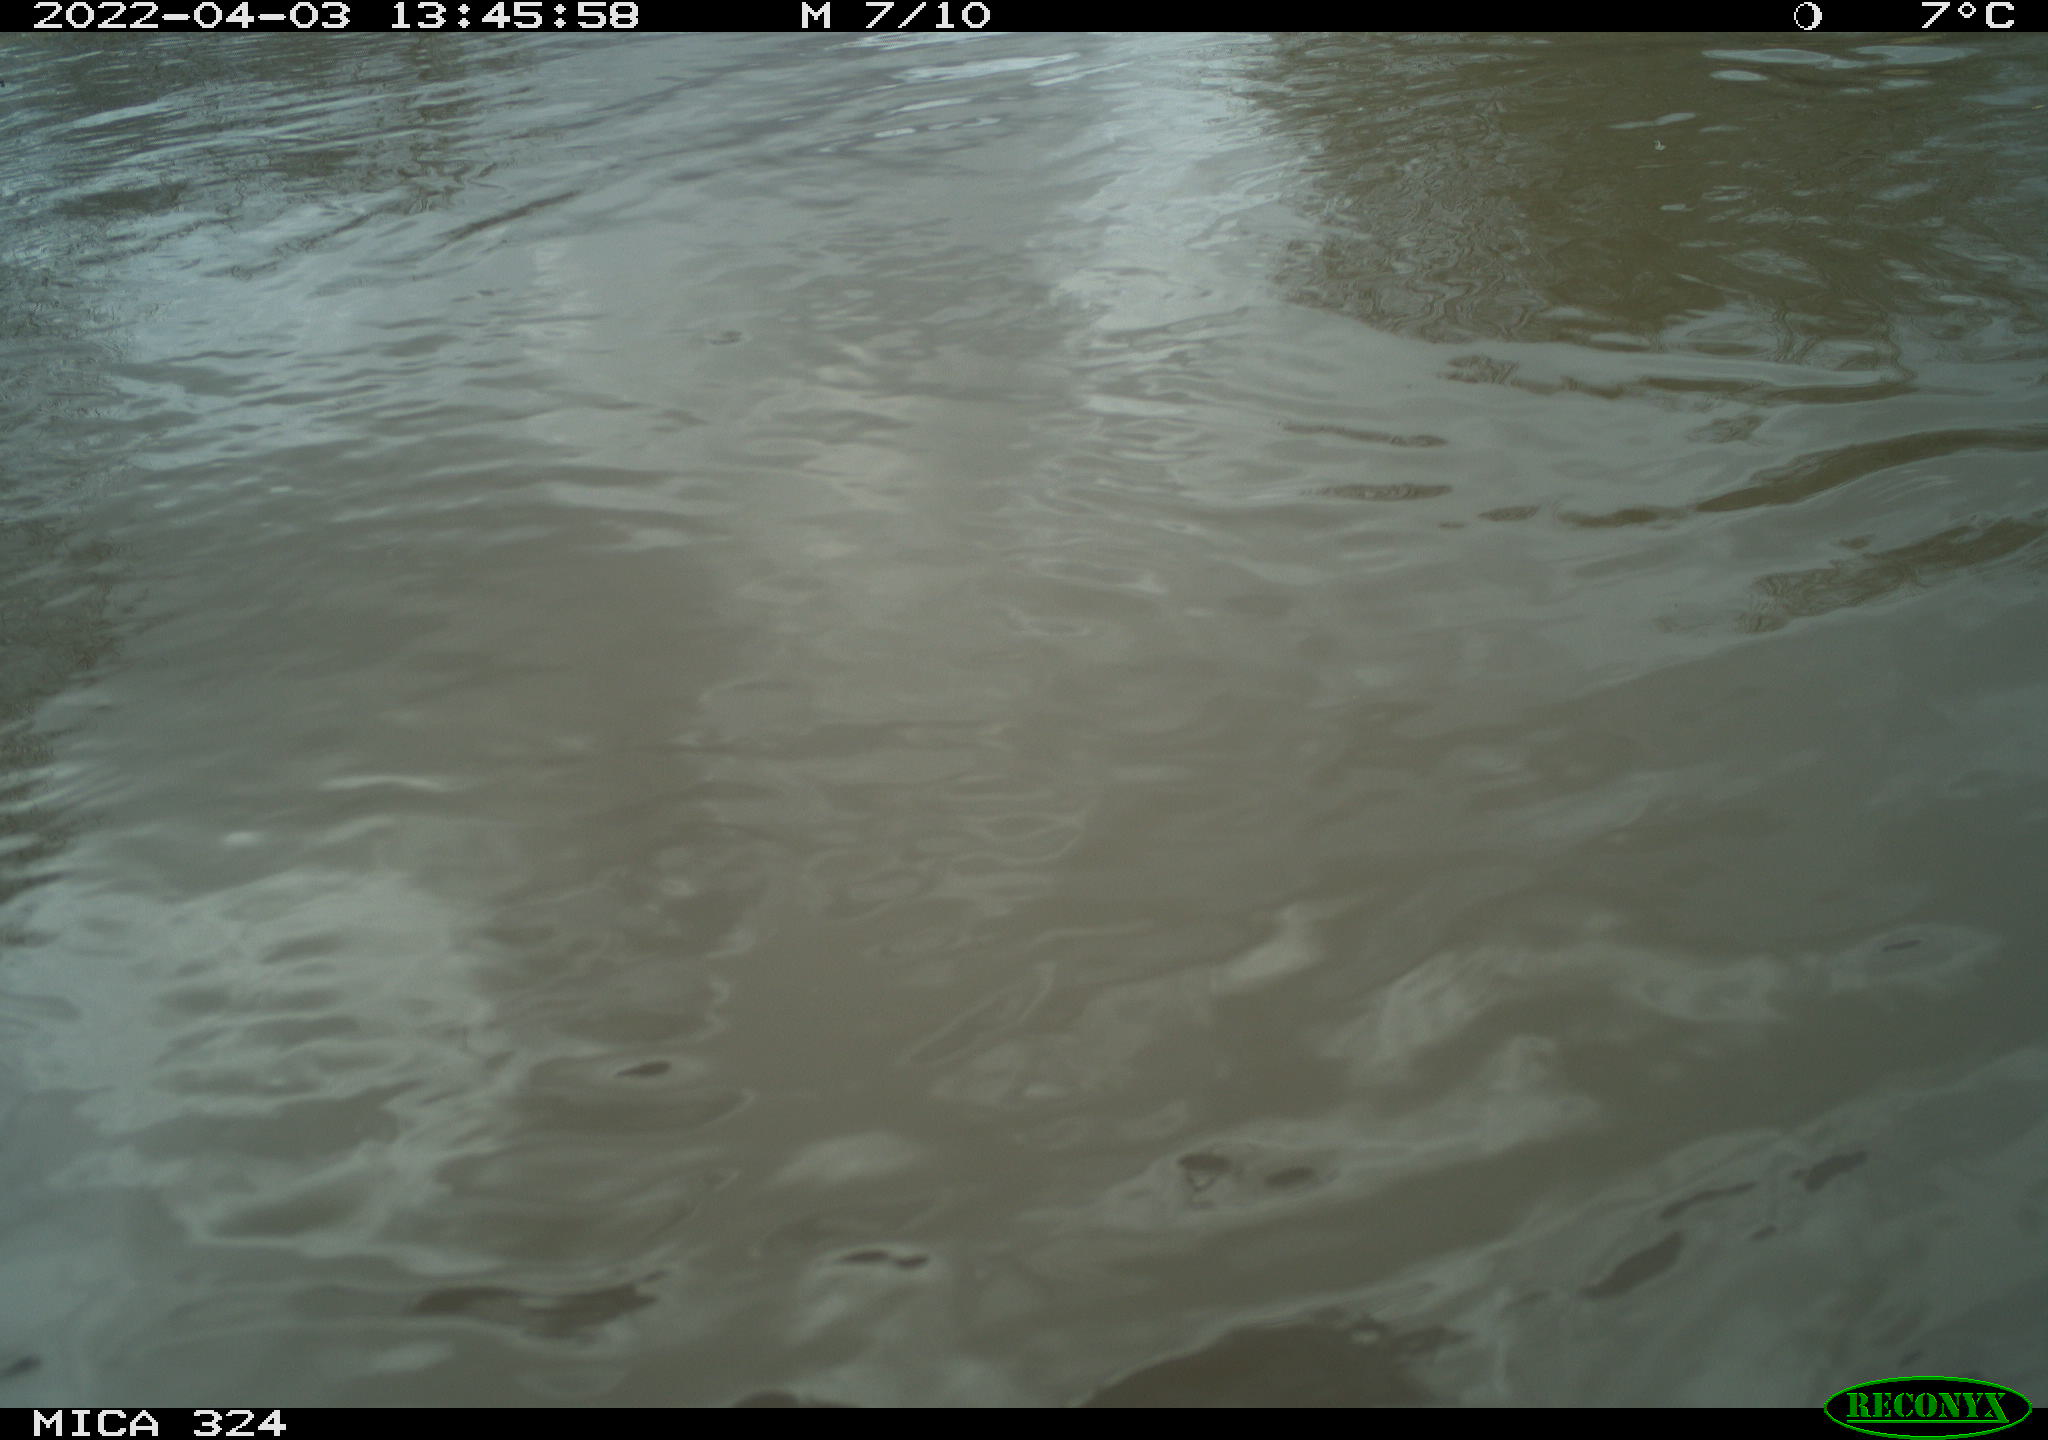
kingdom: Animalia
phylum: Chordata
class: Aves
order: Gruiformes
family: Rallidae
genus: Gallinula
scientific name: Gallinula chloropus
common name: Common moorhen
